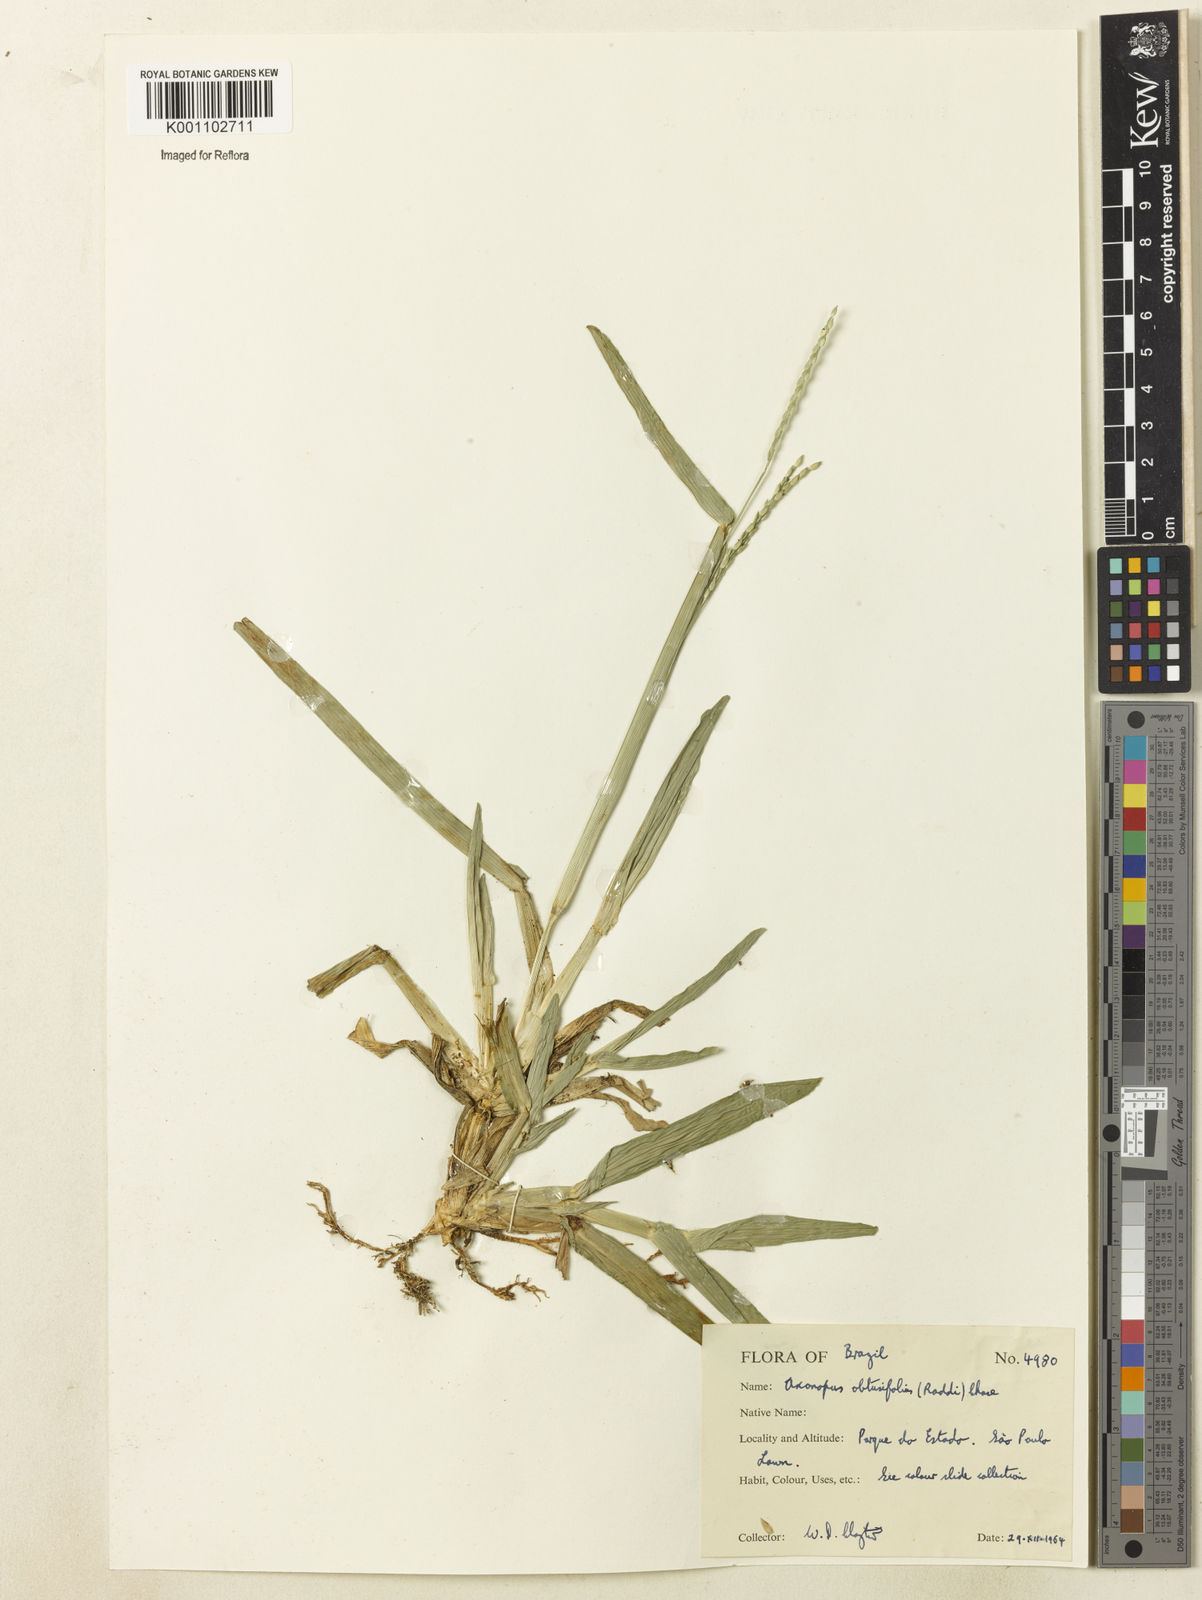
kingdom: Plantae
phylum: Tracheophyta
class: Liliopsida
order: Poales
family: Poaceae
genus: Axonopus
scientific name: Axonopus furcatus
